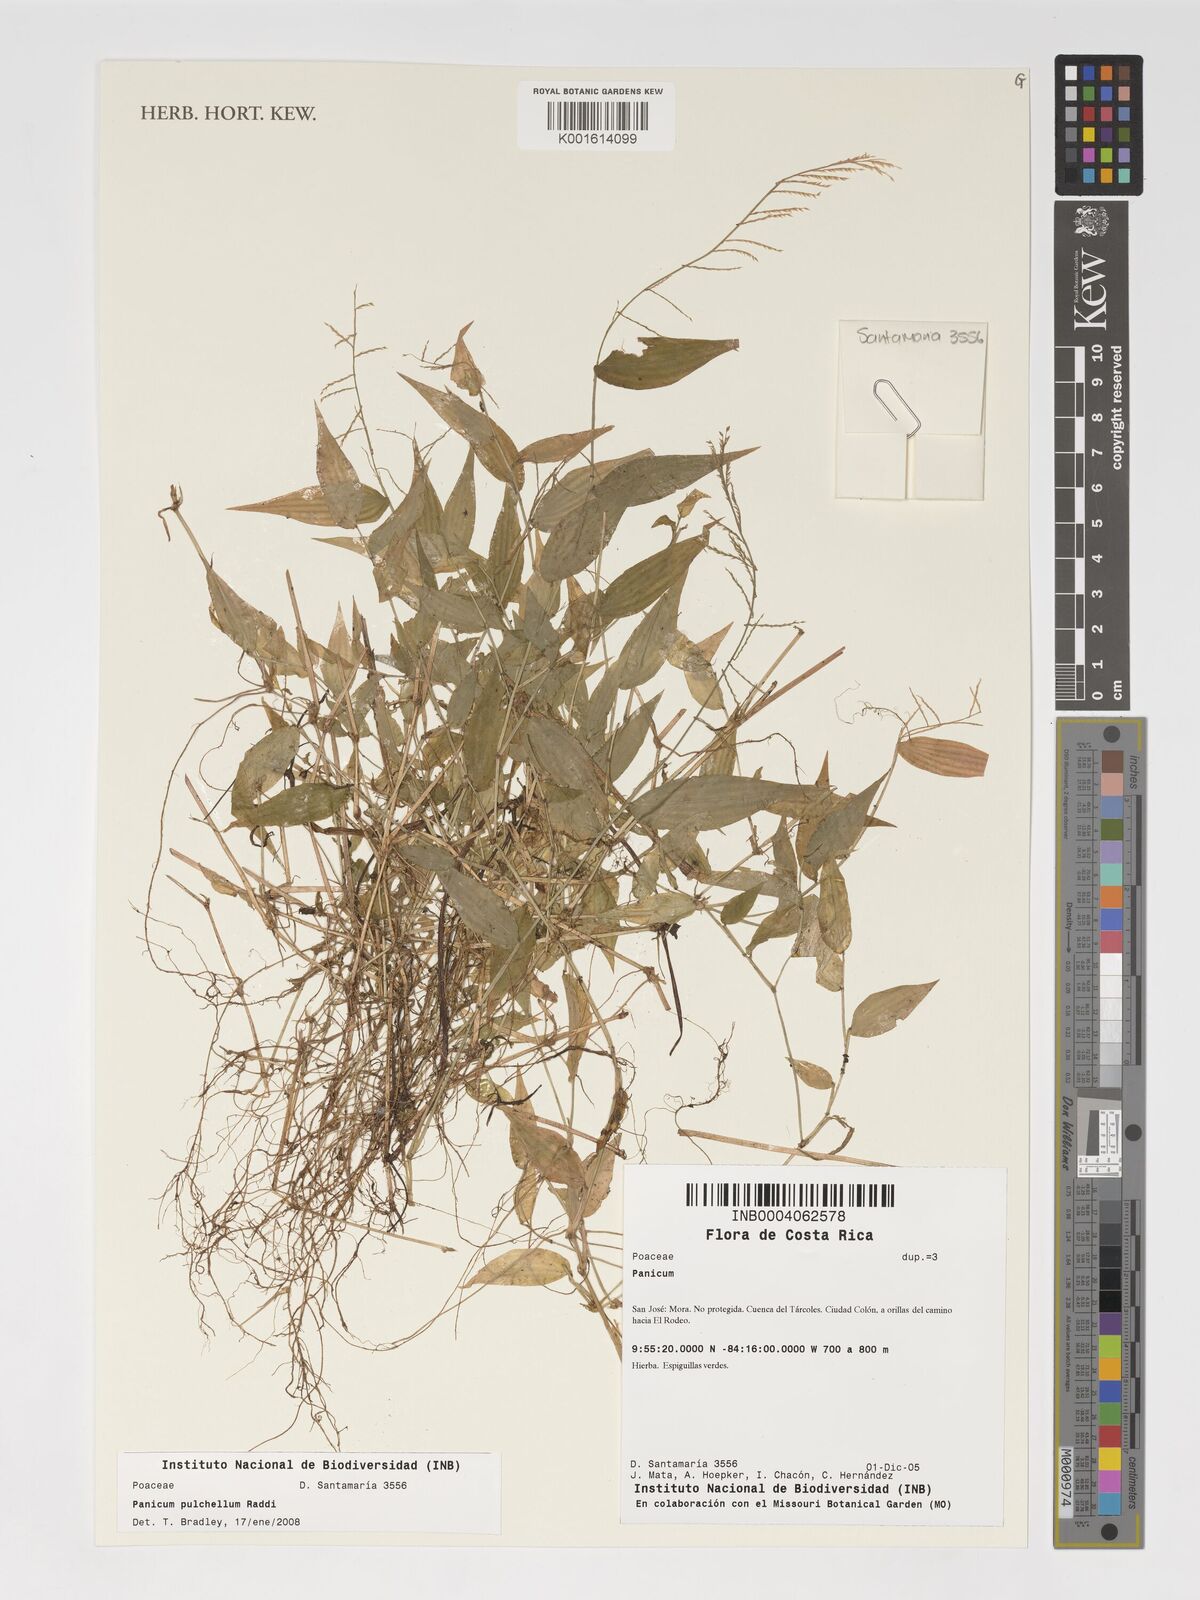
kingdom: Plantae
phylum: Tracheophyta
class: Liliopsida
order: Poales
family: Poaceae
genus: Ocellochloa
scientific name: Ocellochloa pulchella
